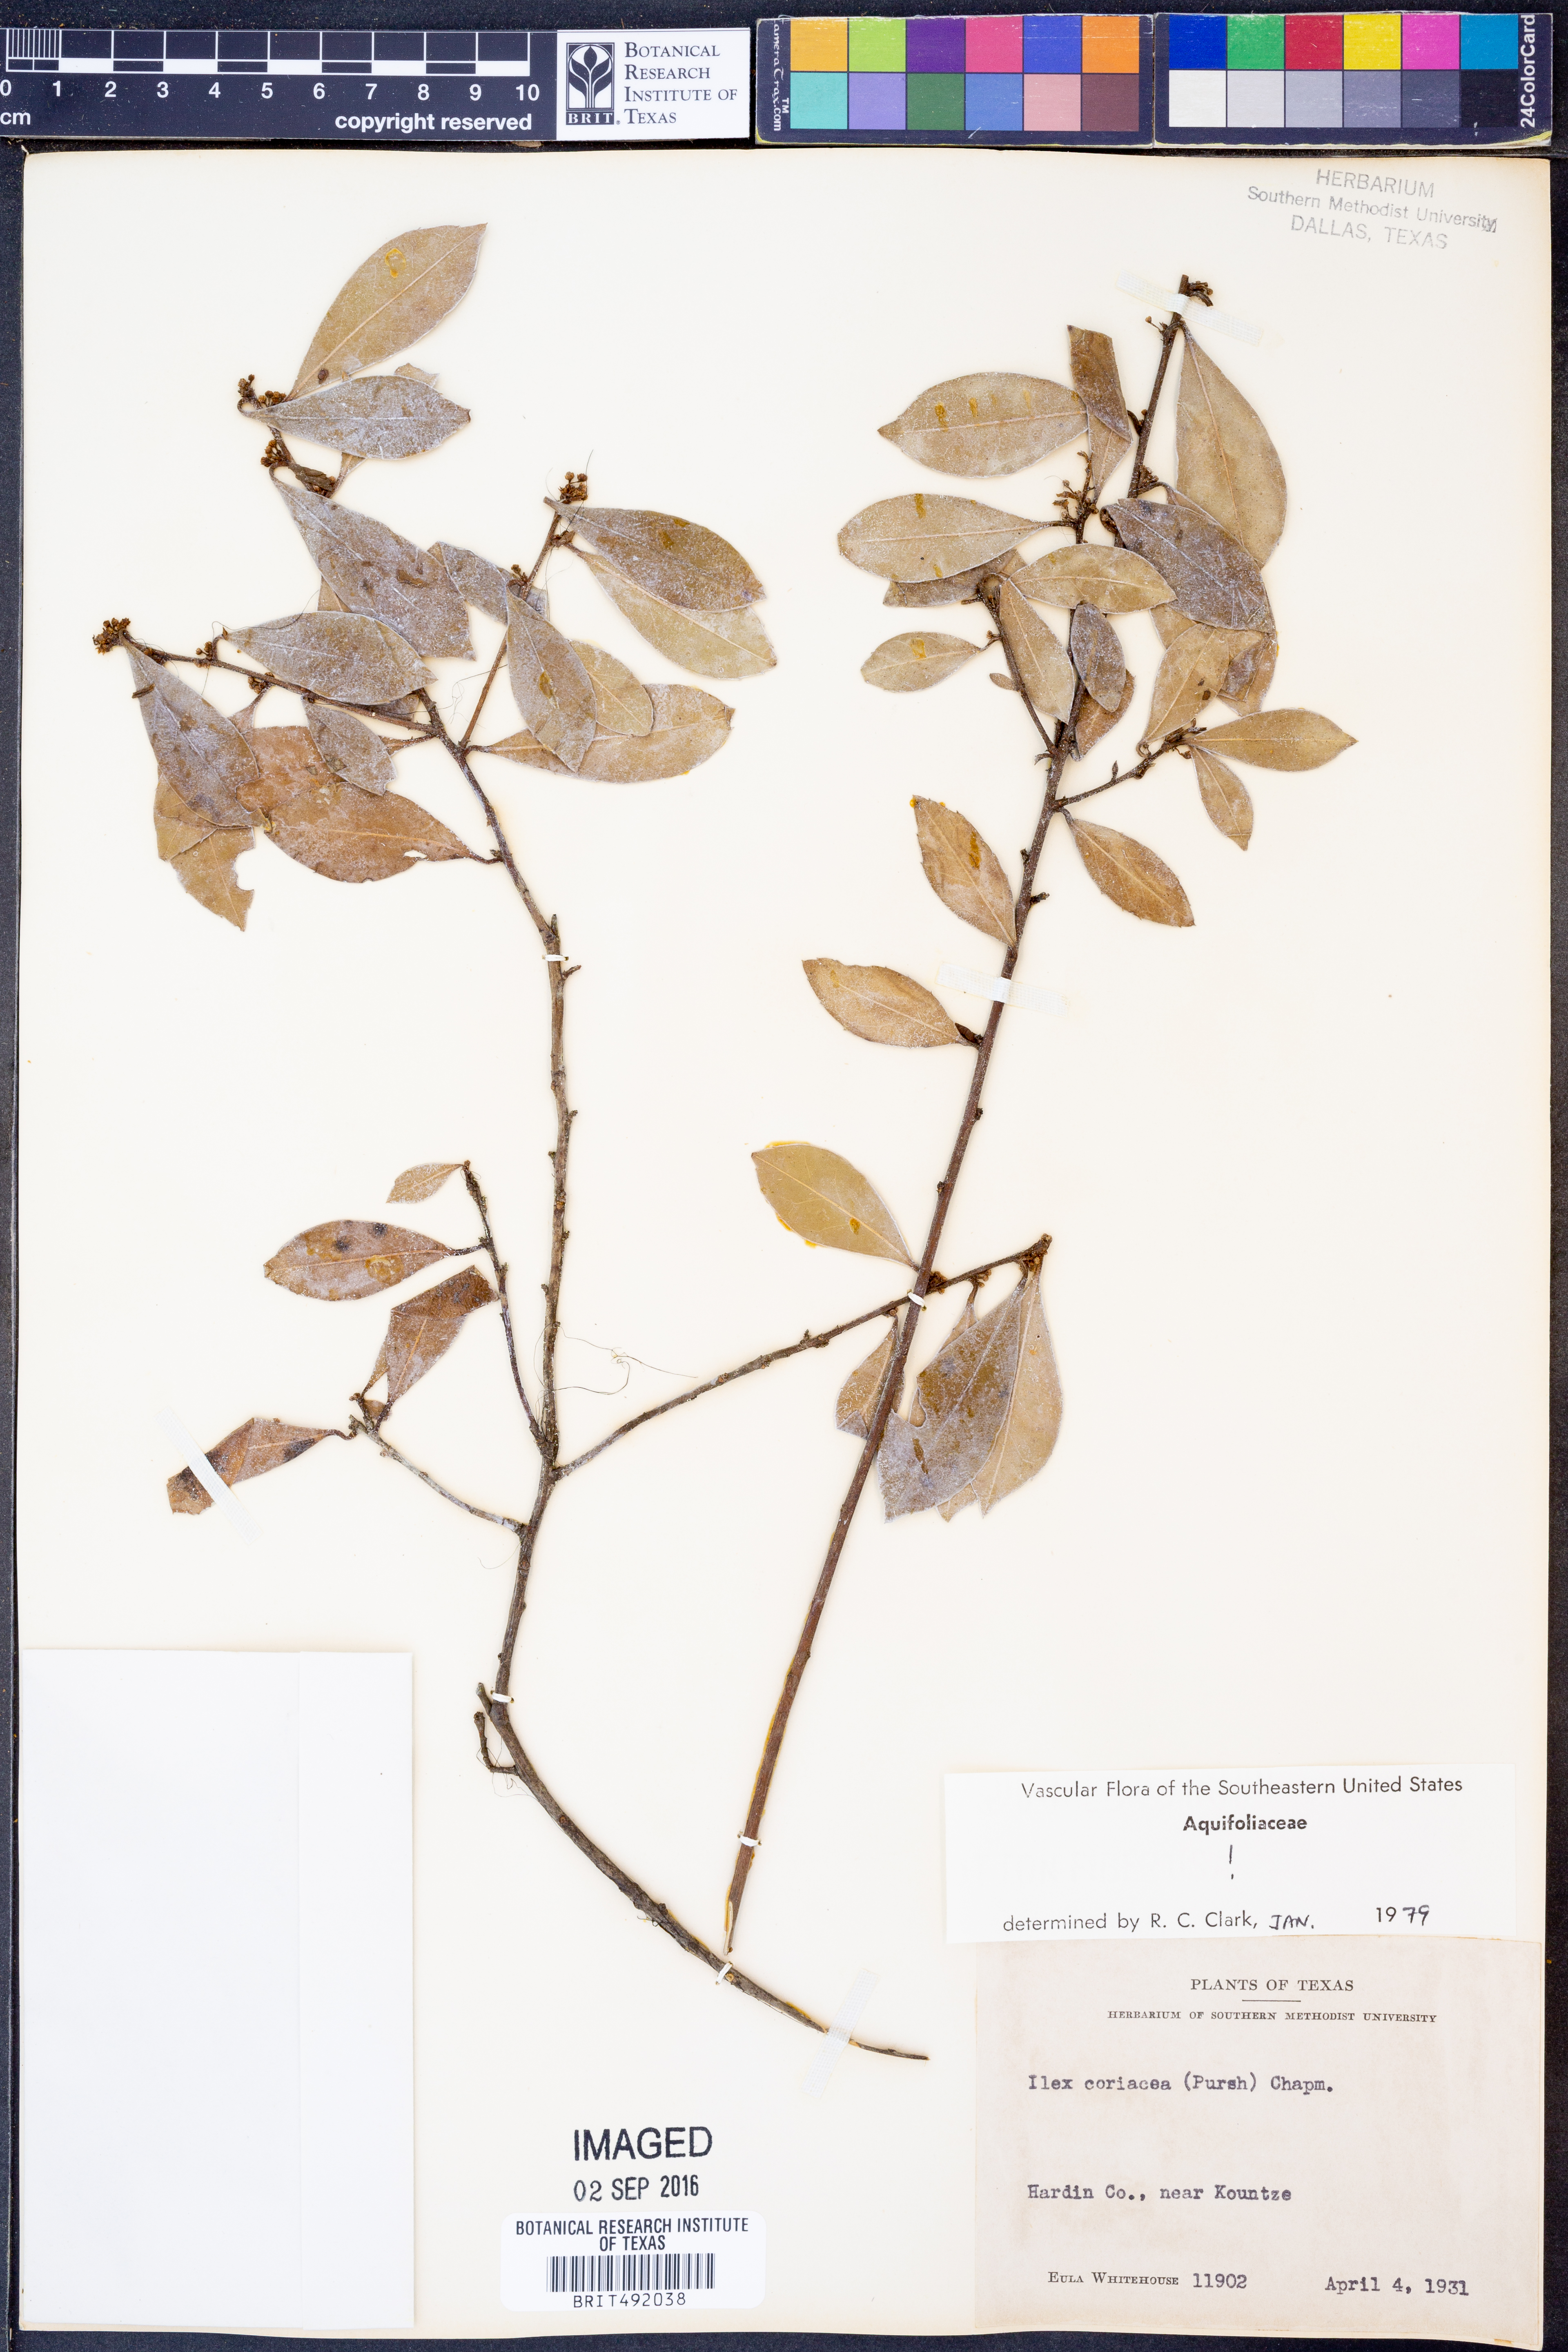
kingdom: Plantae
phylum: Tracheophyta
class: Magnoliopsida
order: Aquifoliales
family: Aquifoliaceae
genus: Ilex
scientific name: Ilex coriacea
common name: Sweet gallberry
